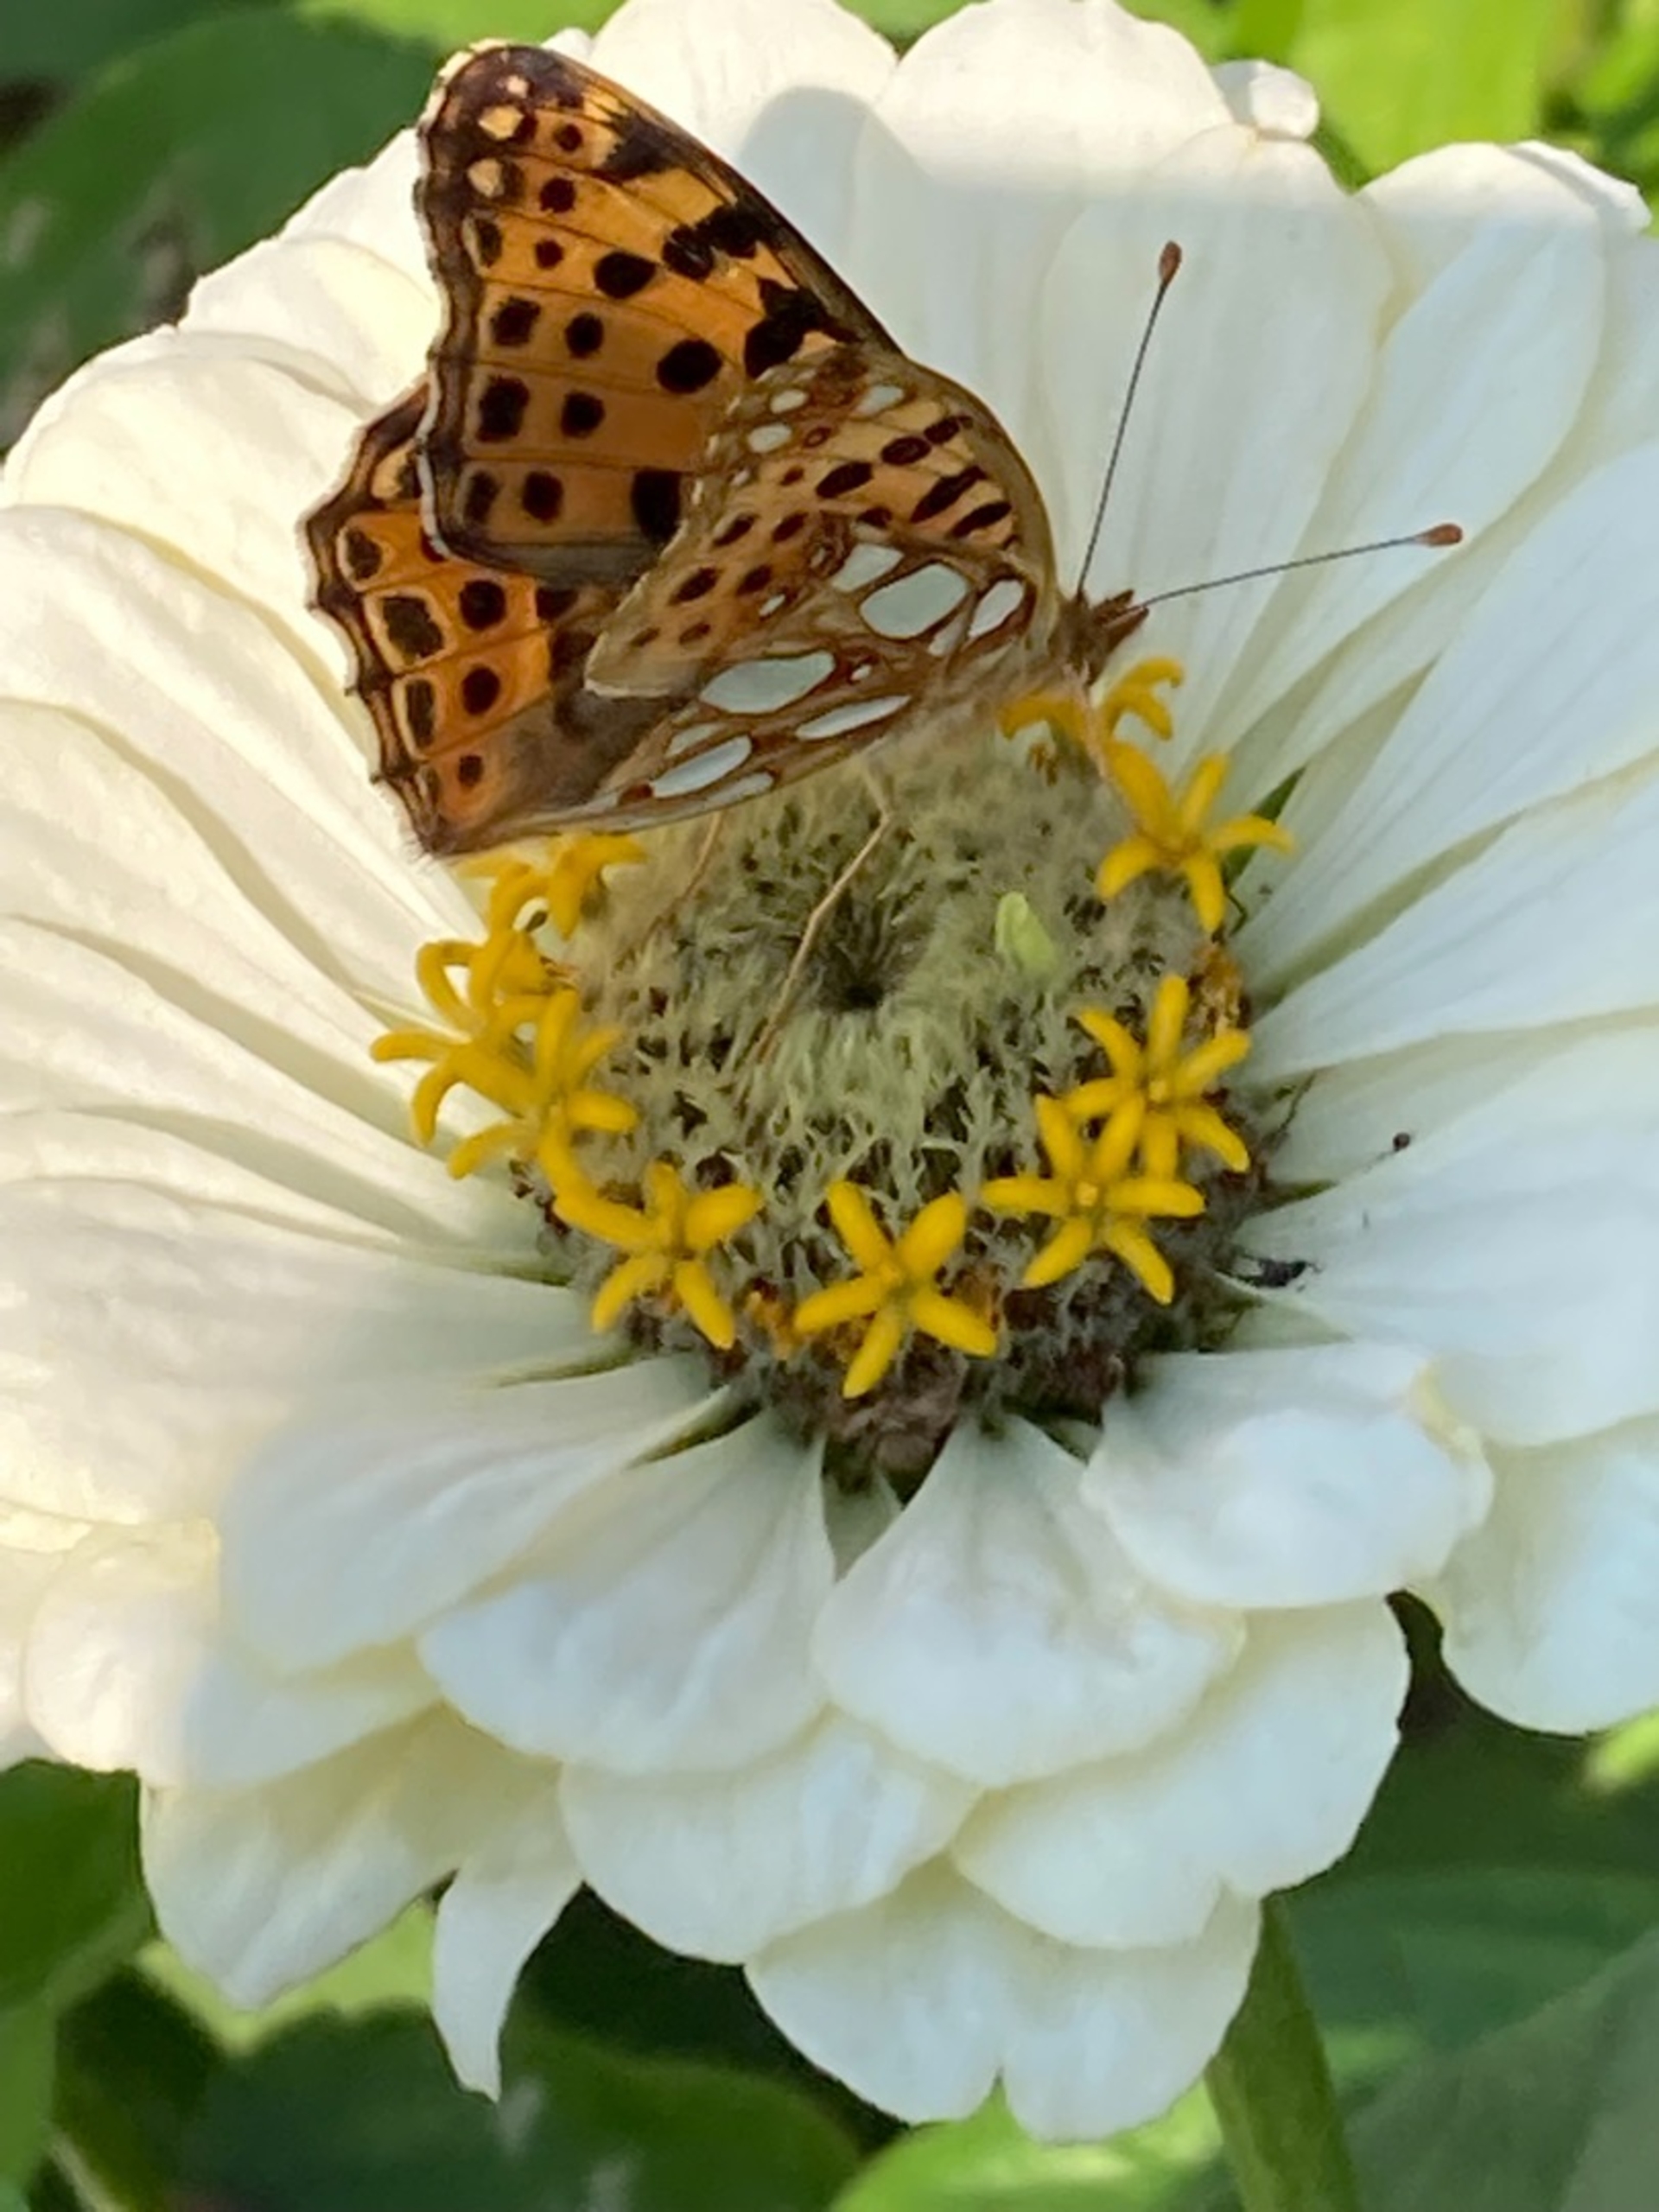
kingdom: Animalia
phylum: Arthropoda
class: Insecta
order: Lepidoptera
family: Nymphalidae
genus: Issoria
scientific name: Issoria lathonia
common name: Storplettet perlemorsommerfugl
